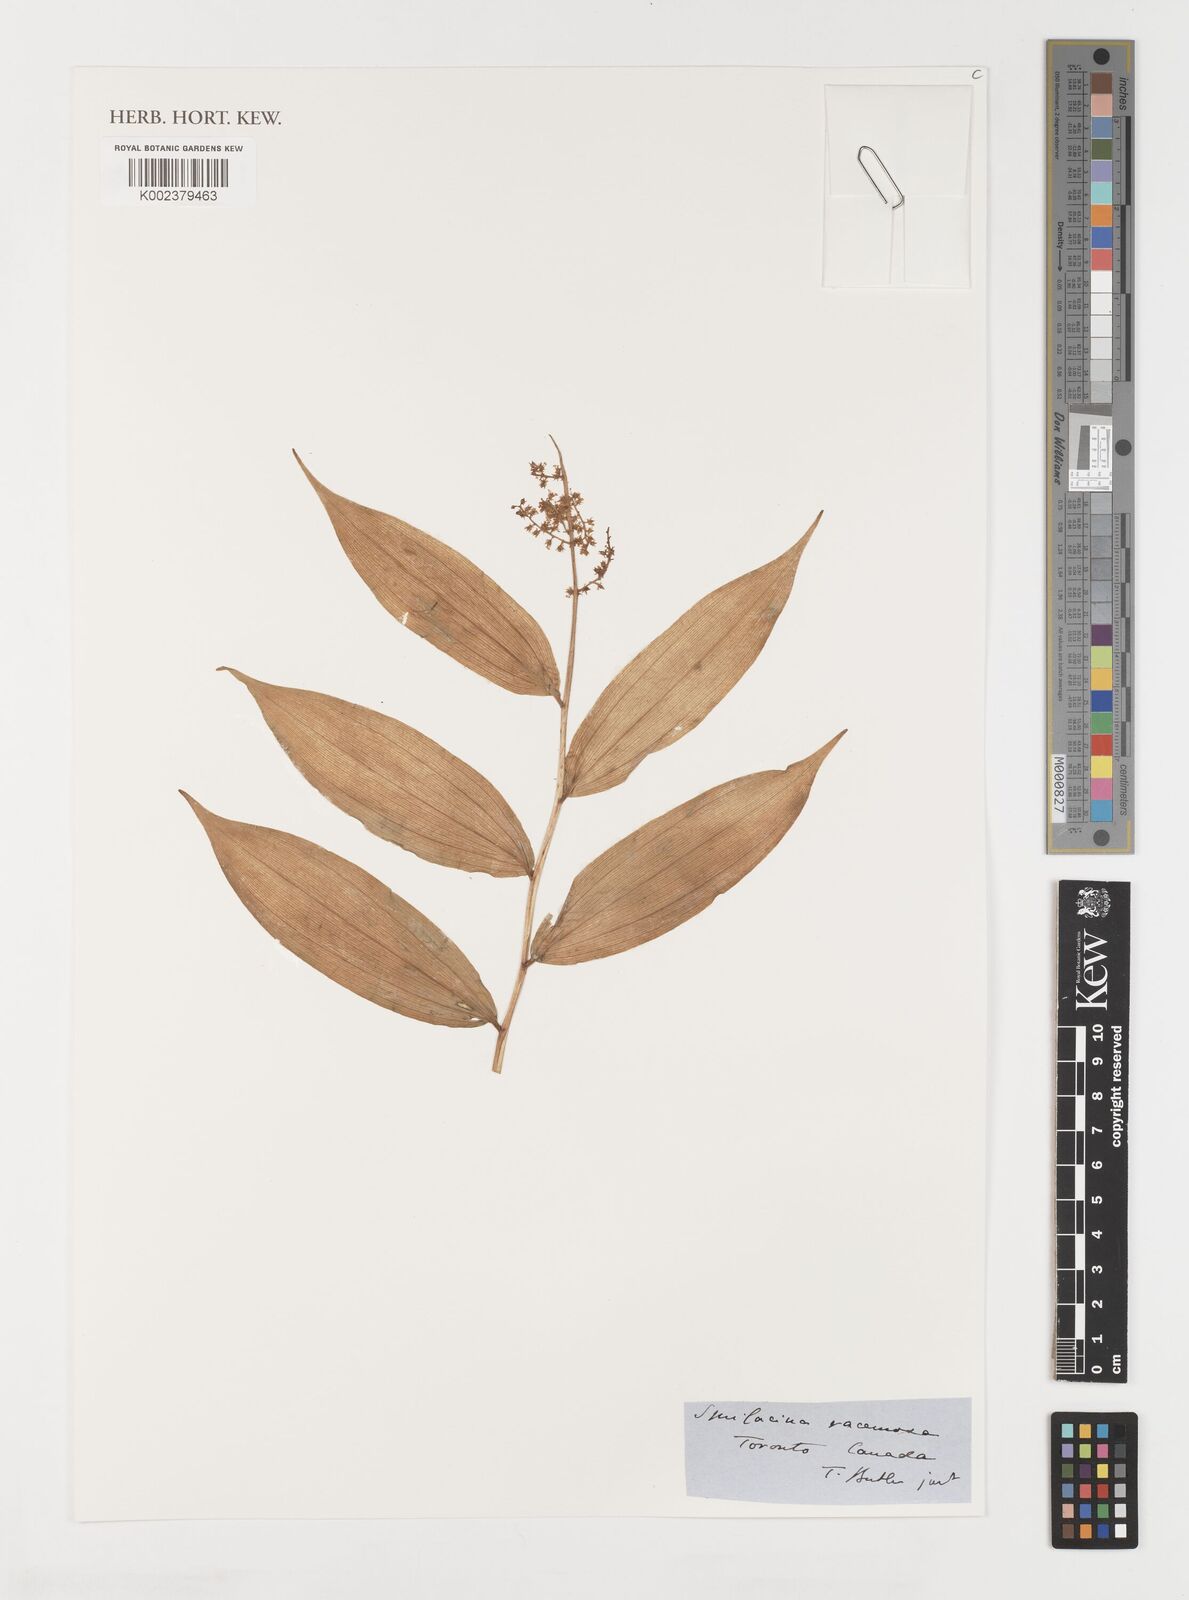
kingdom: Plantae
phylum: Tracheophyta
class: Liliopsida
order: Liliales
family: Smilacaceae
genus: Smilax
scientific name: Smilax
